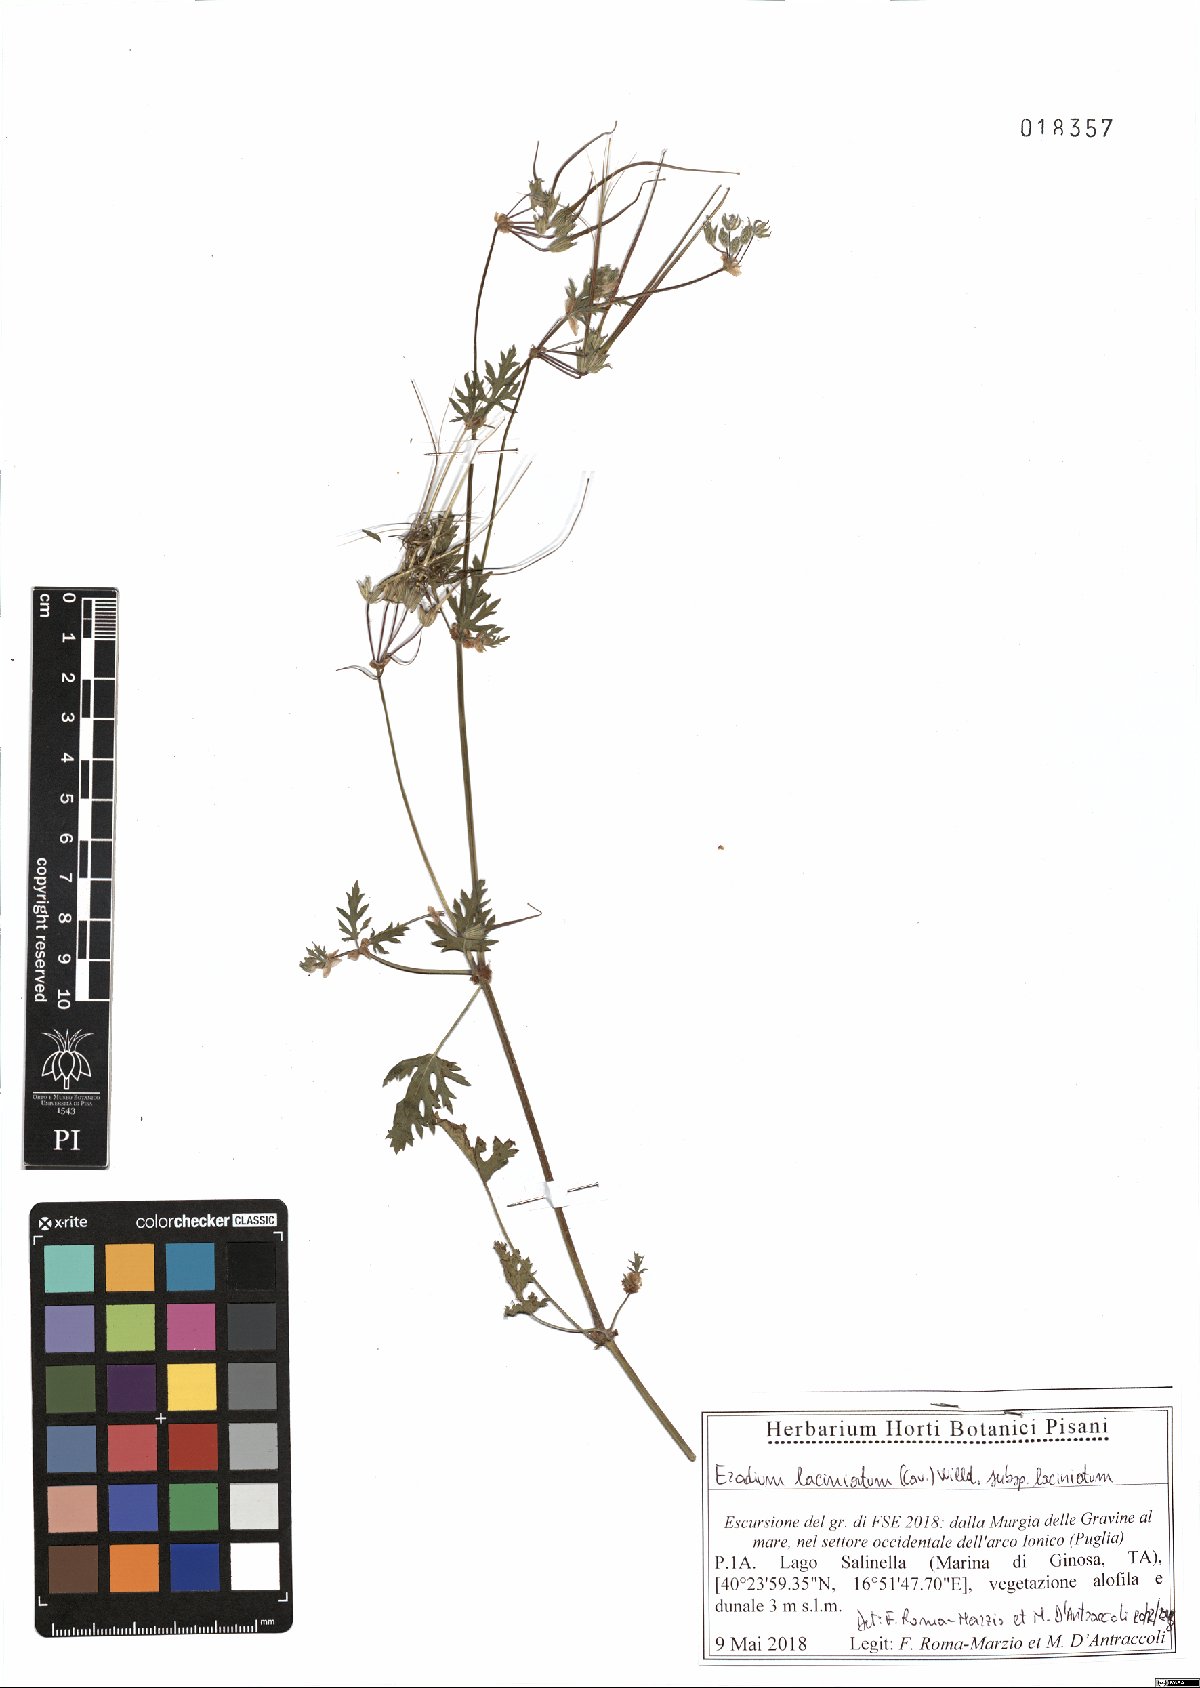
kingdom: Plantae
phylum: Tracheophyta
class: Magnoliopsida
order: Geraniales
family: Geraniaceae
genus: Erodium
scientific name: Erodium laciniatum
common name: Cutleaf stork's bill
